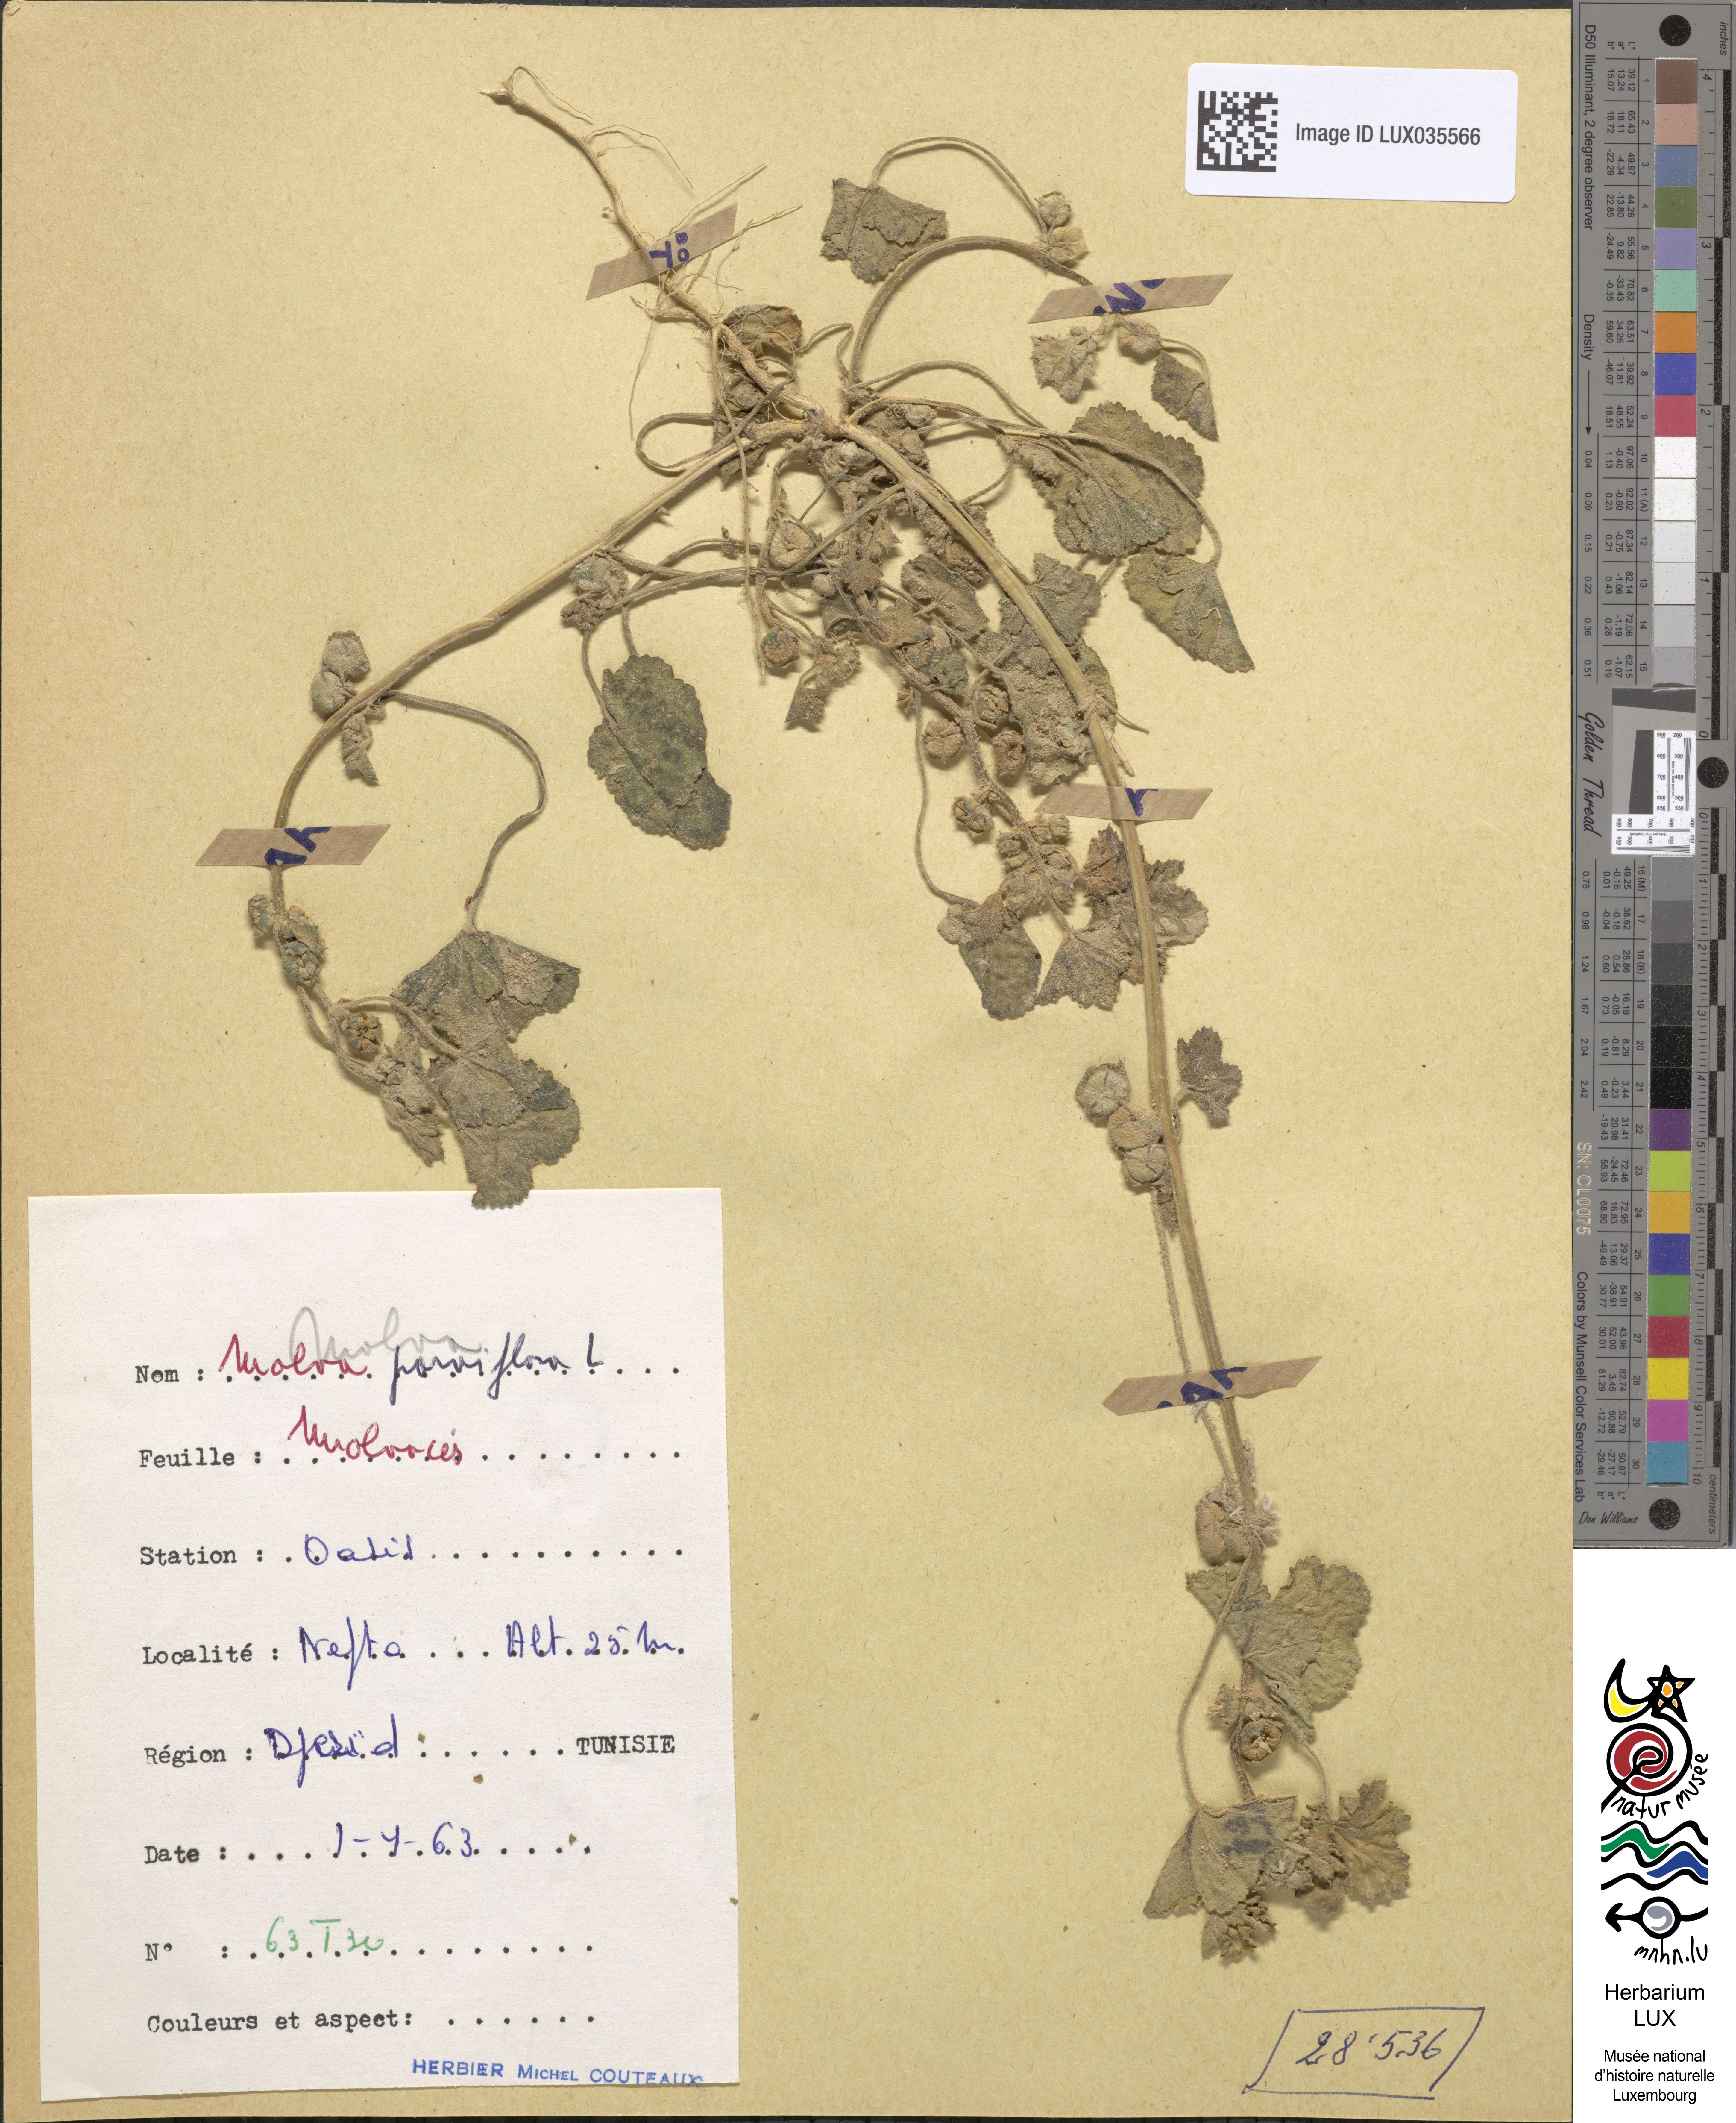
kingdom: Plantae
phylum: Tracheophyta
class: Magnoliopsida
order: Malvales
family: Malvaceae
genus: Malva
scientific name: Malva parviflora
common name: Least mallow
